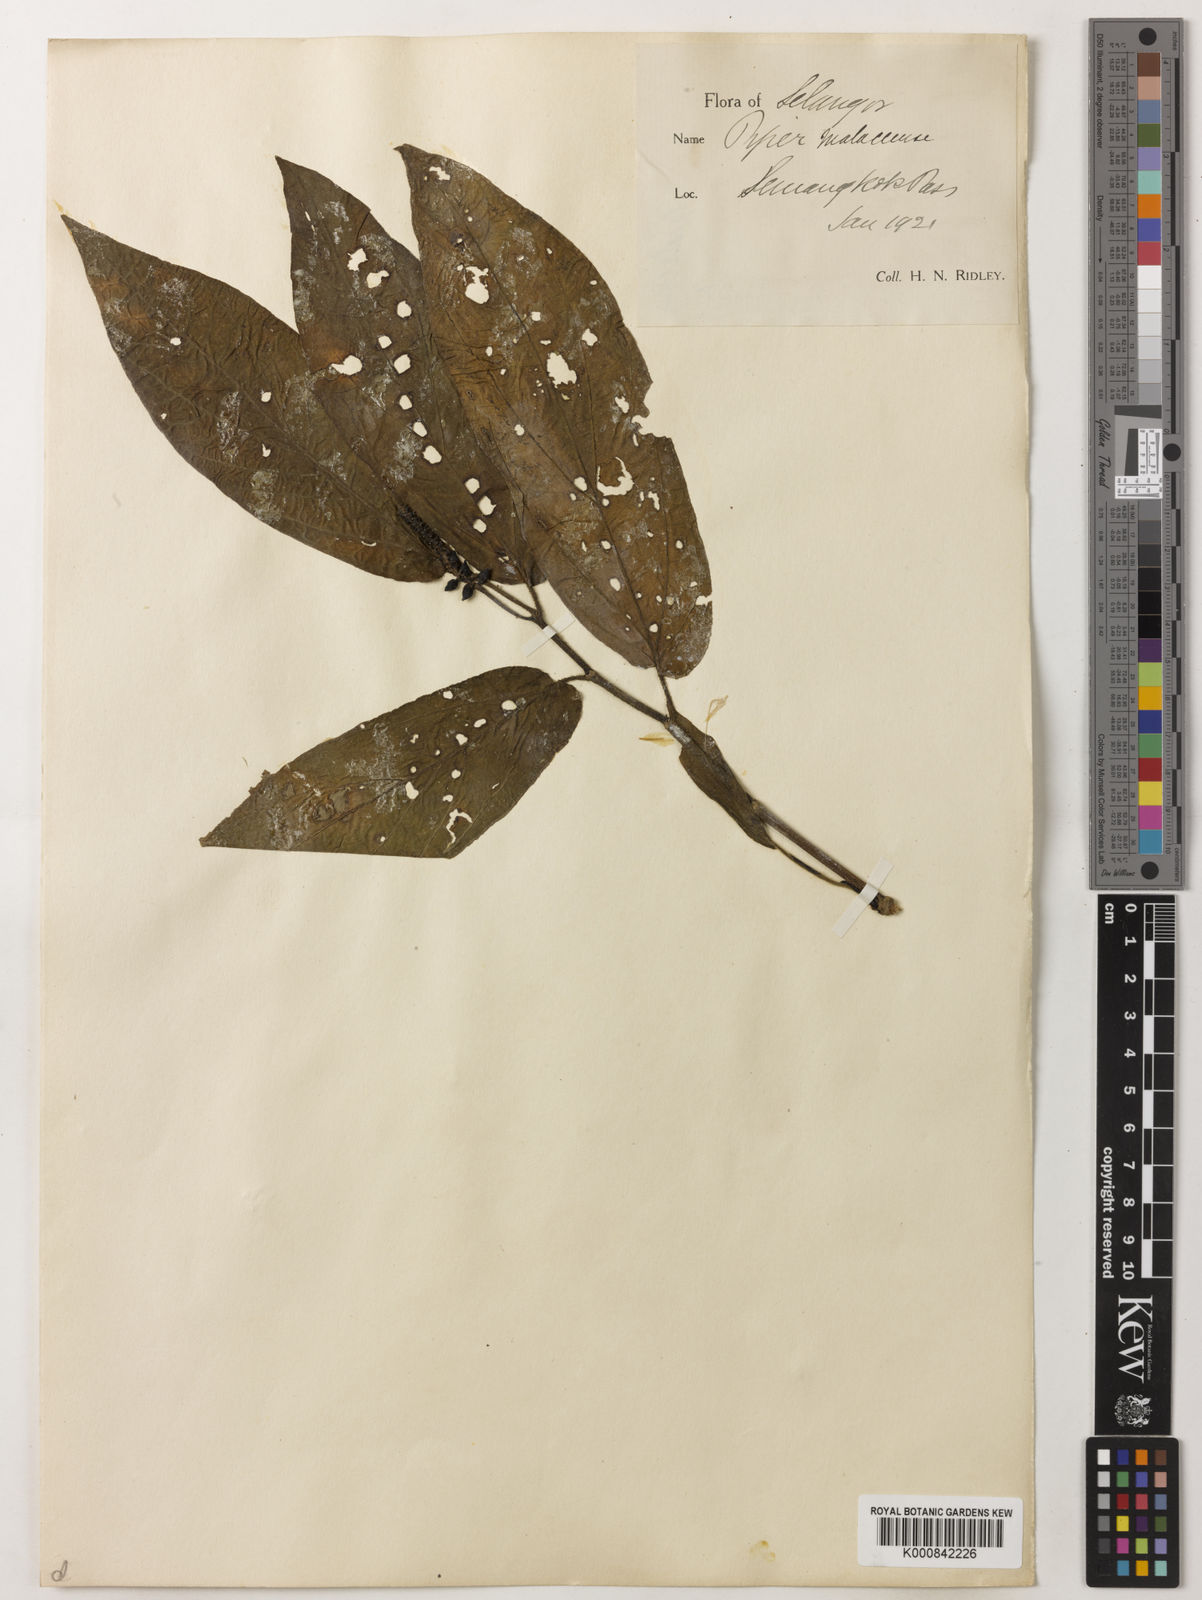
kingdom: Plantae
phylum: Tracheophyta
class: Magnoliopsida
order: Piperales
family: Piperaceae
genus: Piper
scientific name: Piper ridleyi
